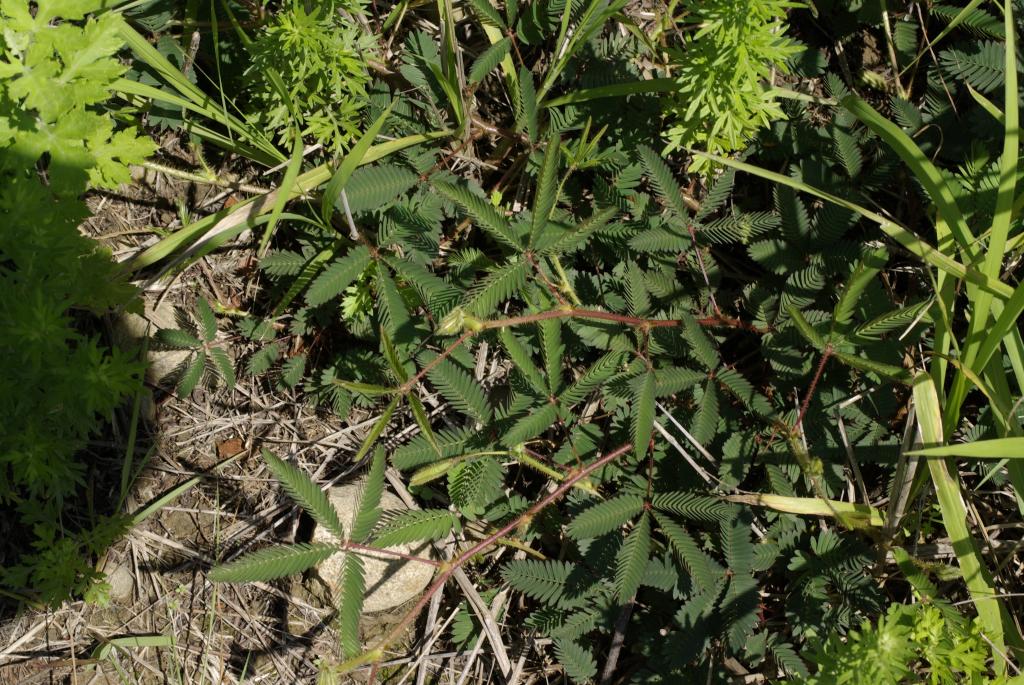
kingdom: Plantae
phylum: Tracheophyta
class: Magnoliopsida
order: Fabales
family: Fabaceae
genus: Mimosa
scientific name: Mimosa pudica
